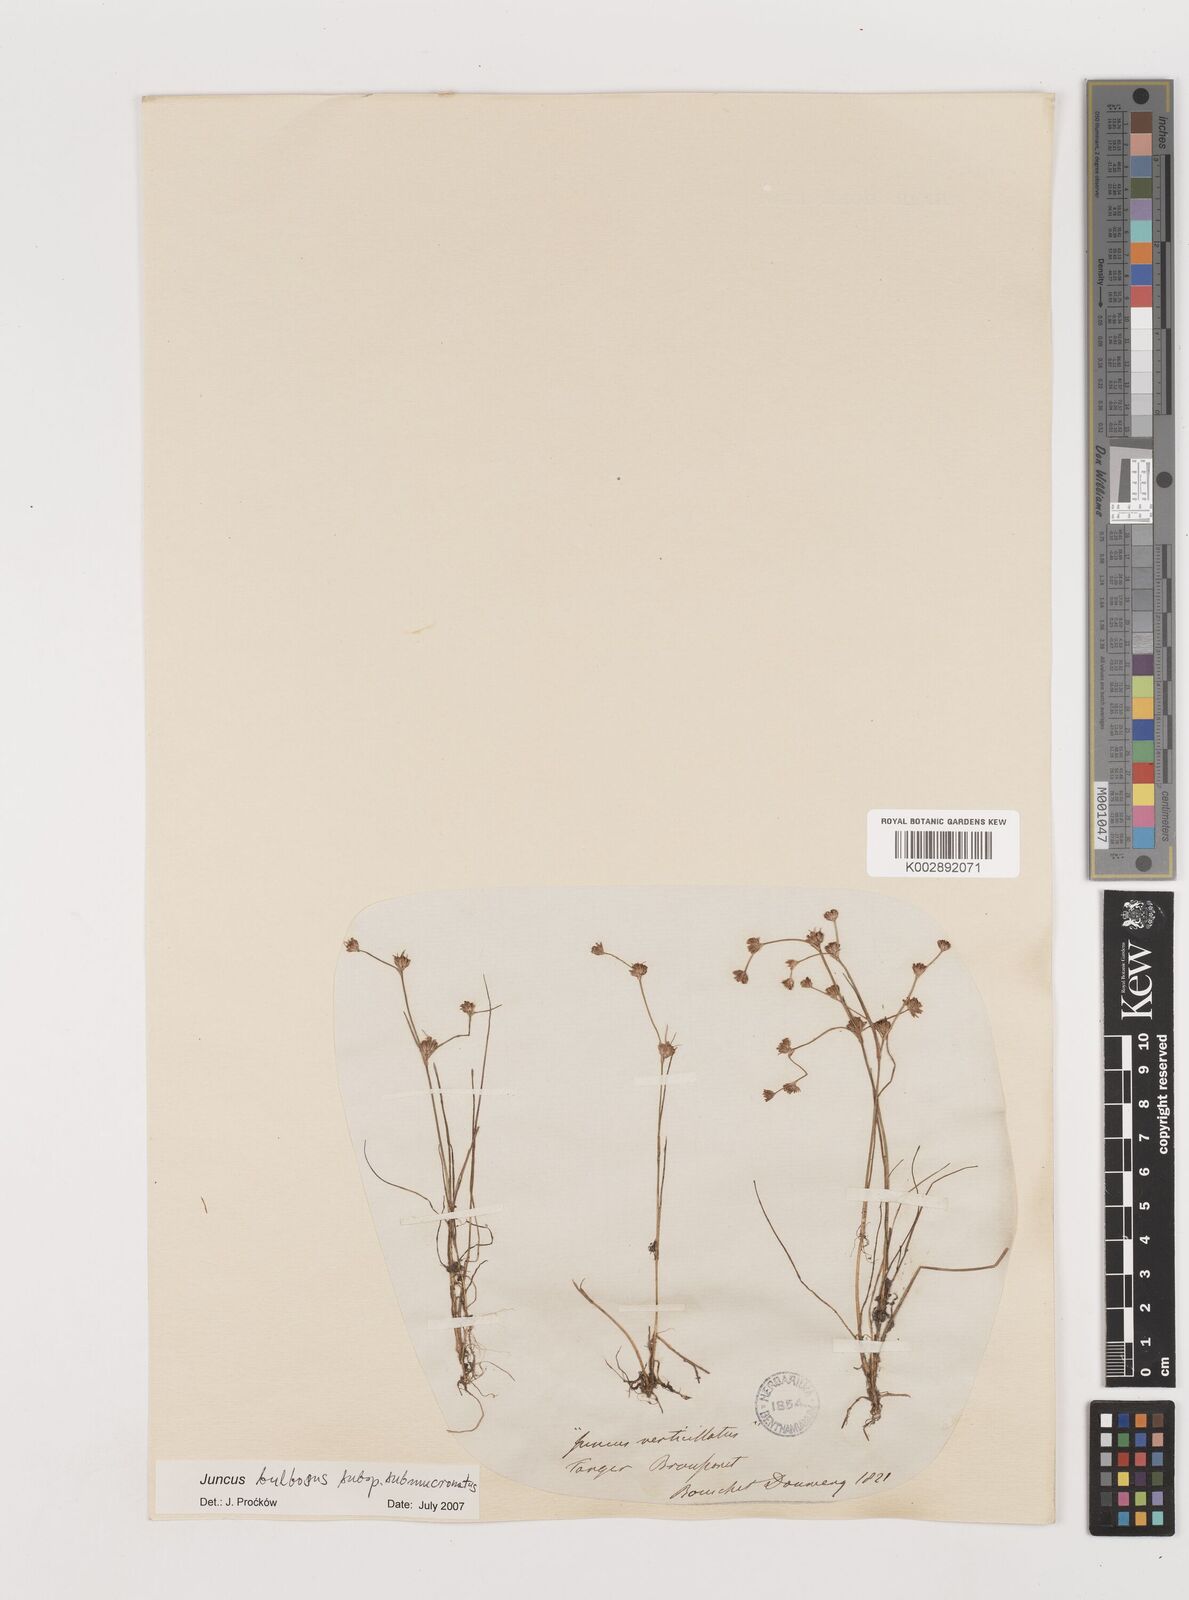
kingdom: Plantae
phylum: Tracheophyta
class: Liliopsida
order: Poales
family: Juncaceae
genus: Juncus
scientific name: Juncus bulbosus
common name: Bulbous rush
